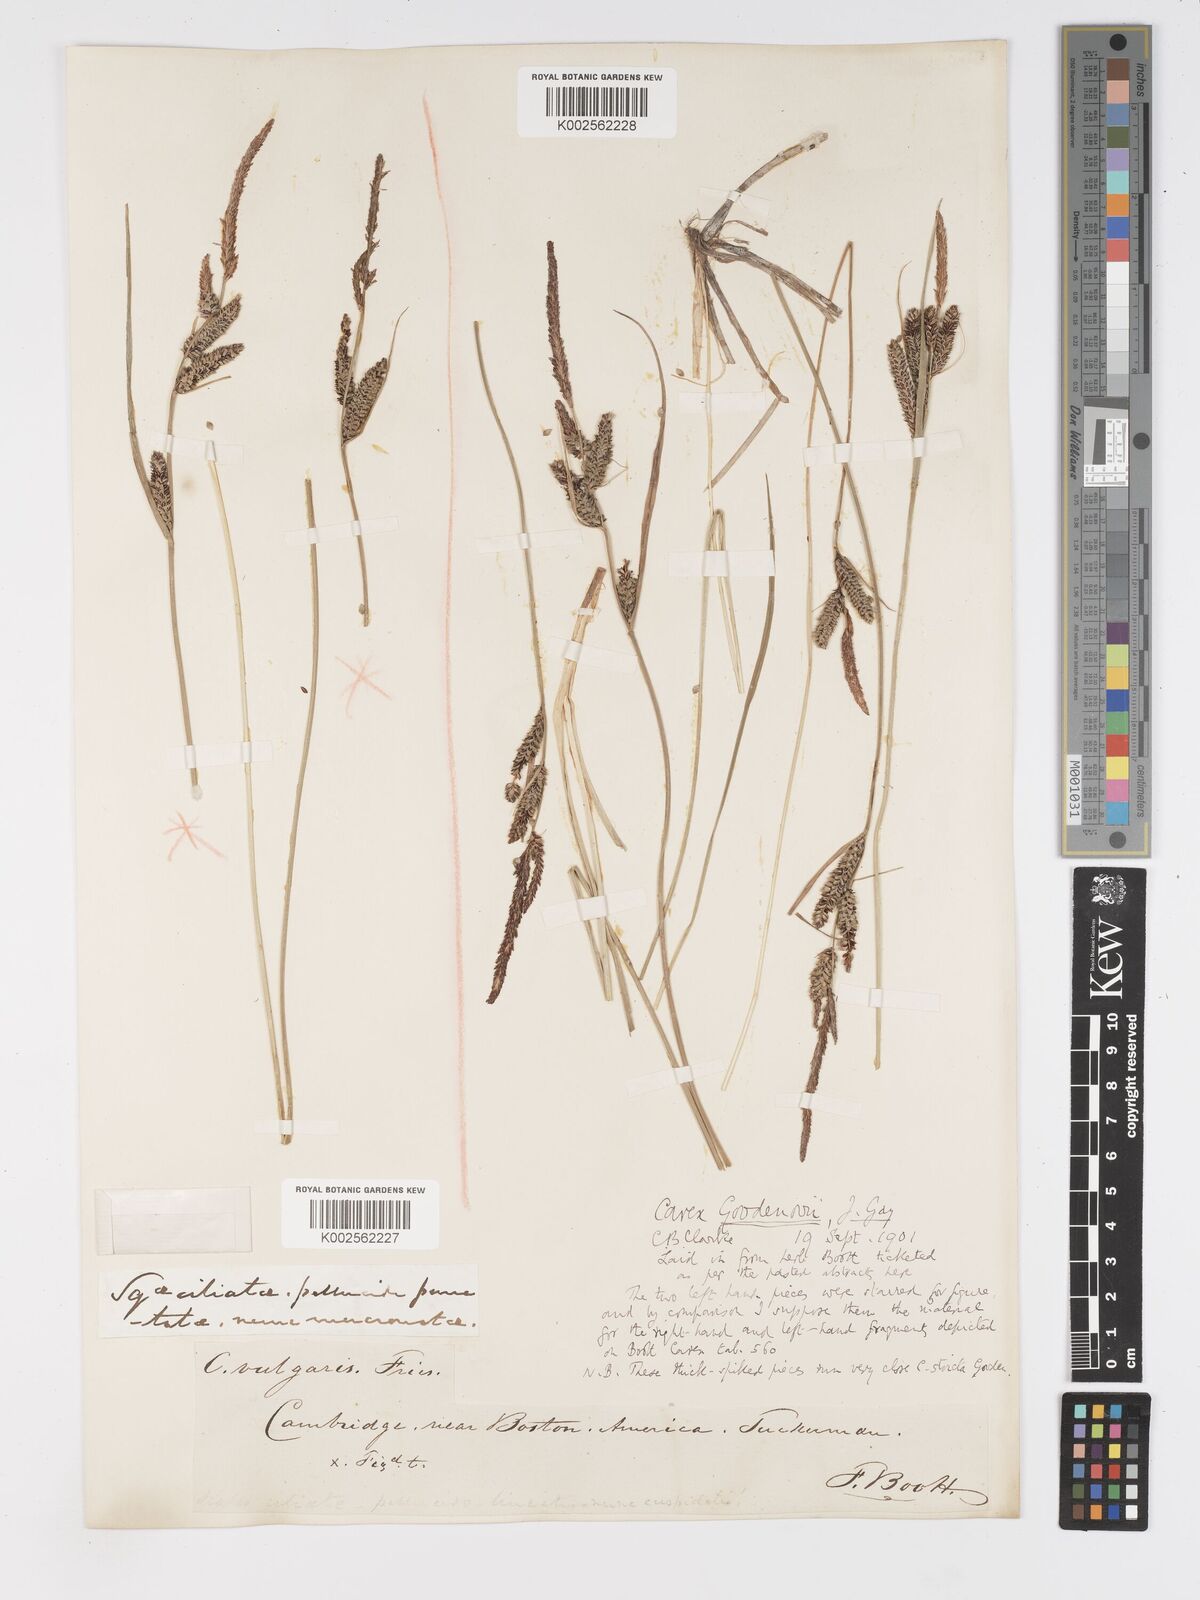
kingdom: Plantae
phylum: Tracheophyta
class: Liliopsida
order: Poales
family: Cyperaceae
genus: Carex
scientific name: Carex nigra
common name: Common sedge
